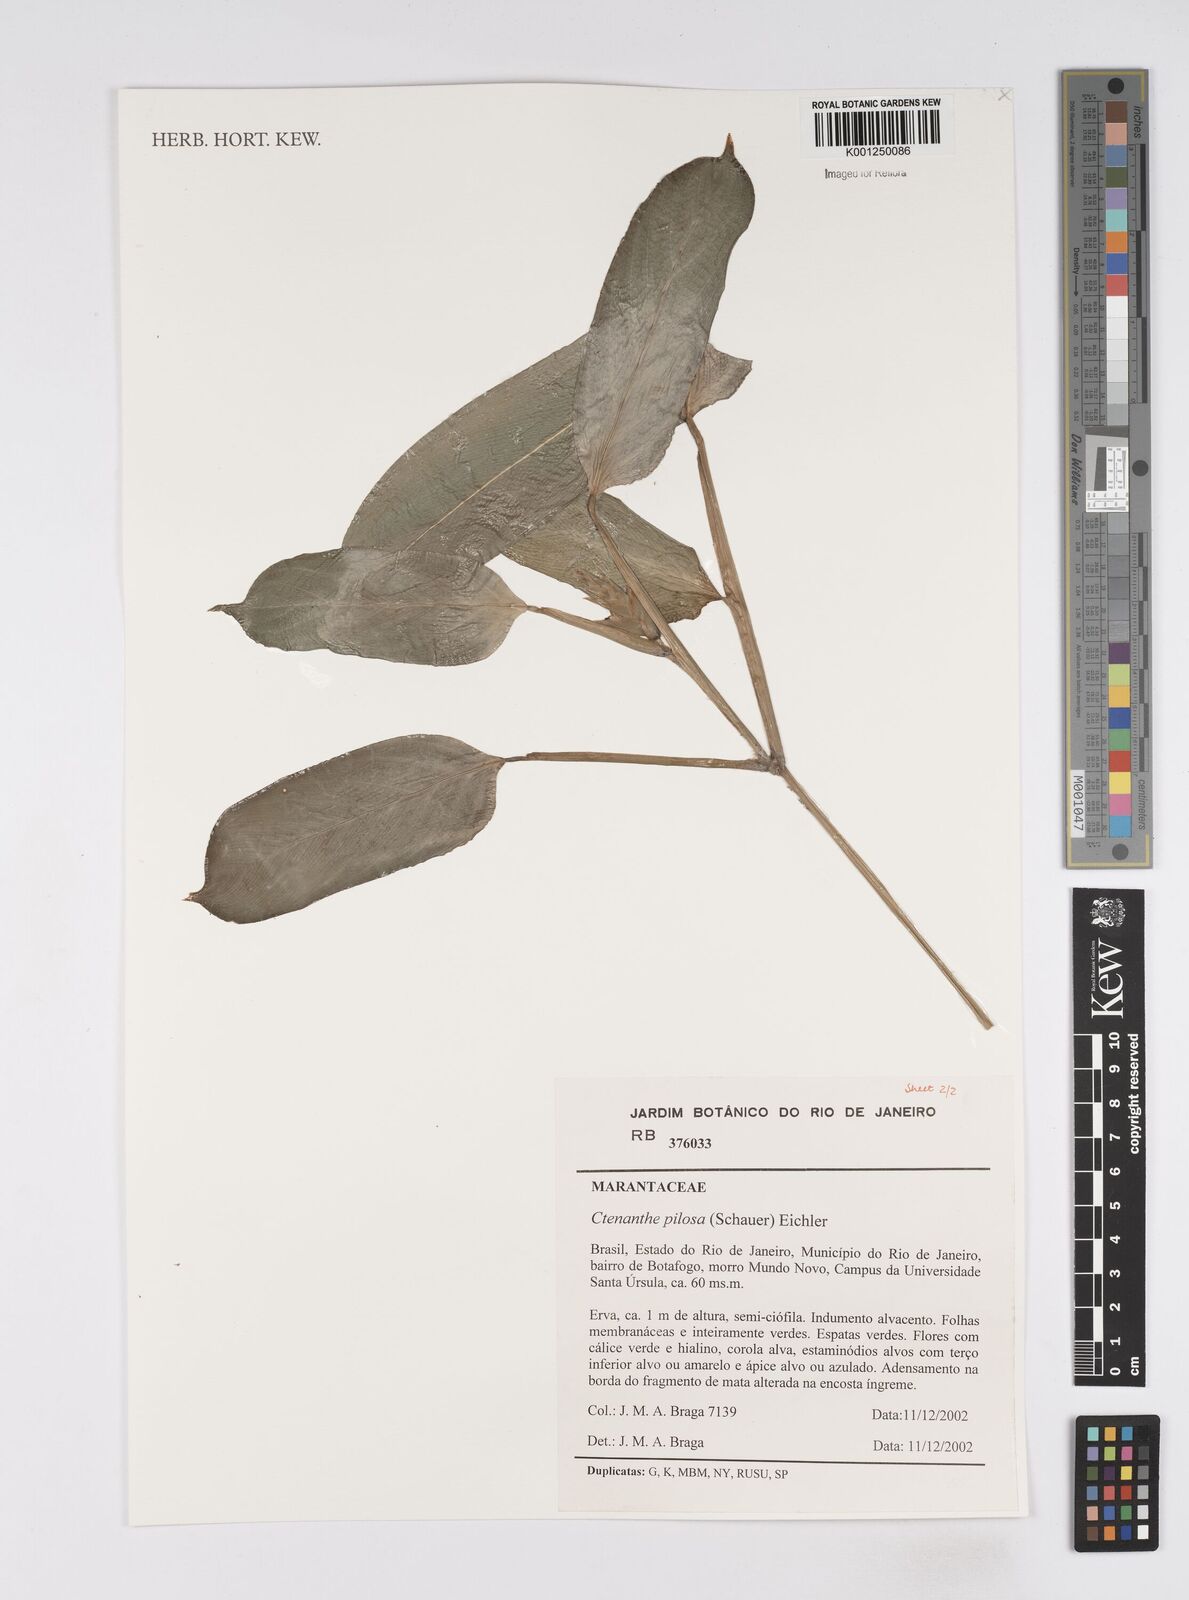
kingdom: Plantae
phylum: Tracheophyta
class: Liliopsida
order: Zingiberales
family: Marantaceae
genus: Ctenanthe
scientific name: Ctenanthe marantifolia
